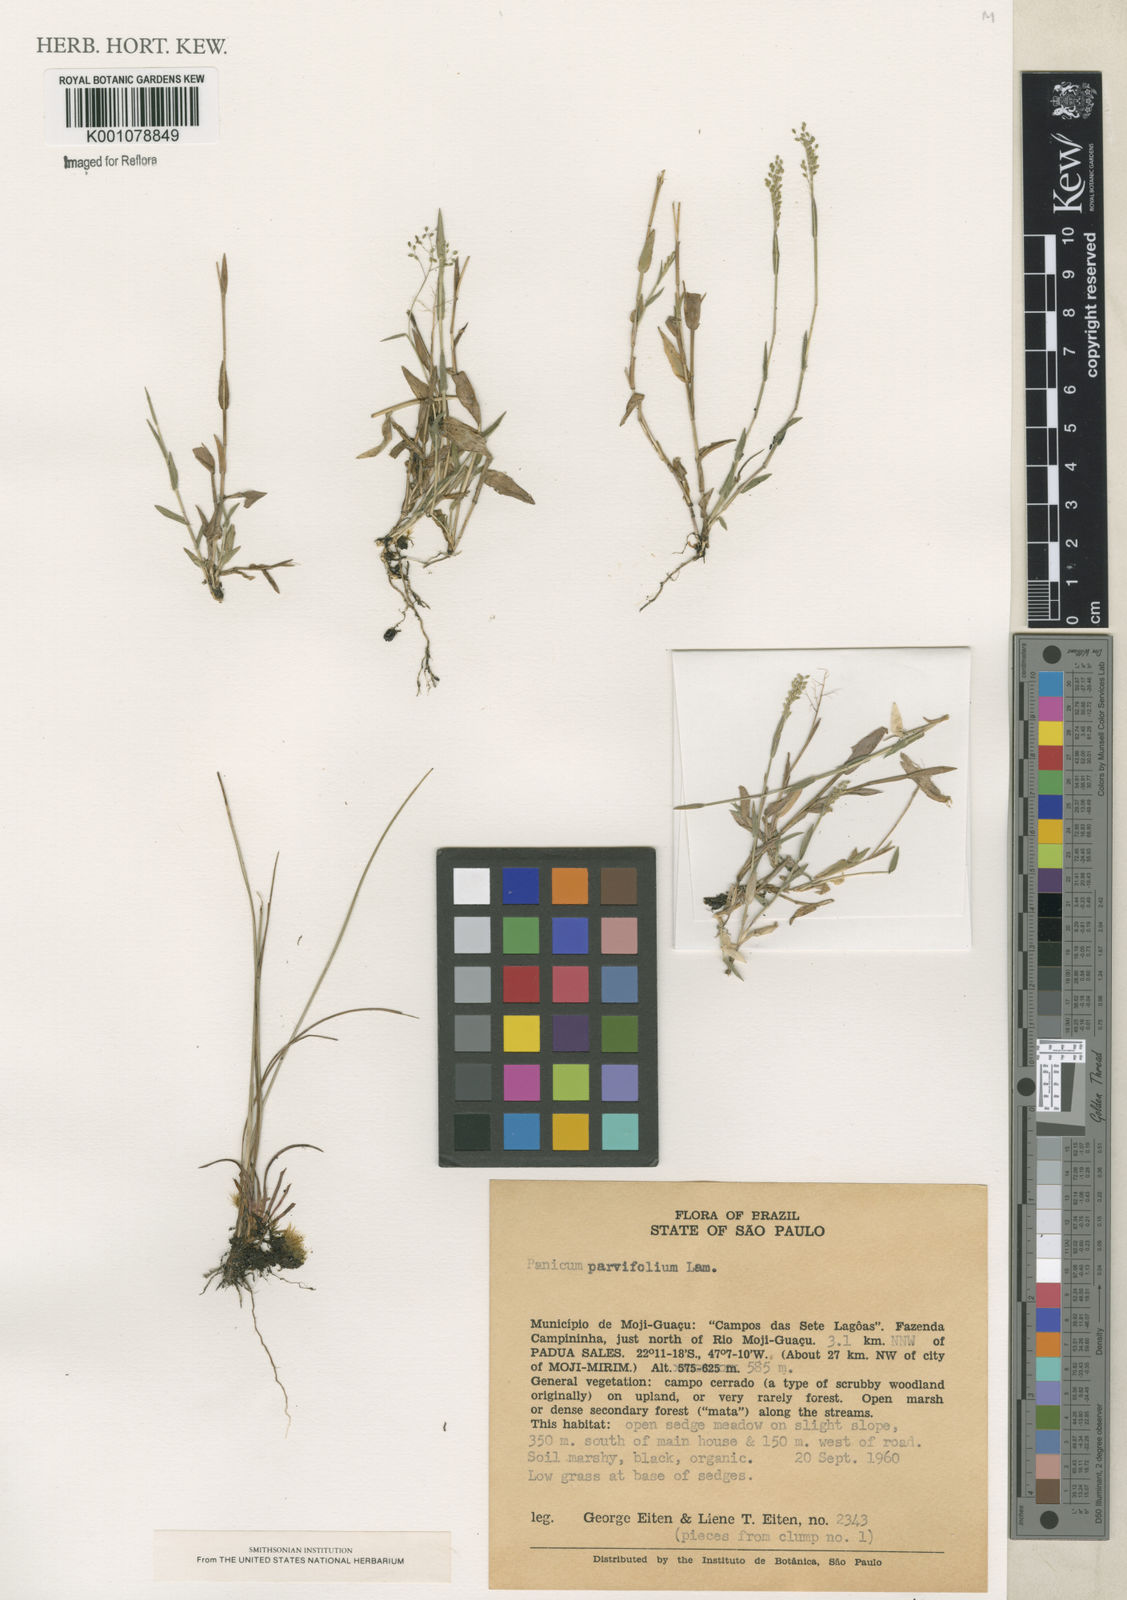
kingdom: Plantae
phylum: Tracheophyta
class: Liliopsida
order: Poales
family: Poaceae
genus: Trichanthecium
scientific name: Trichanthecium parvifolium
